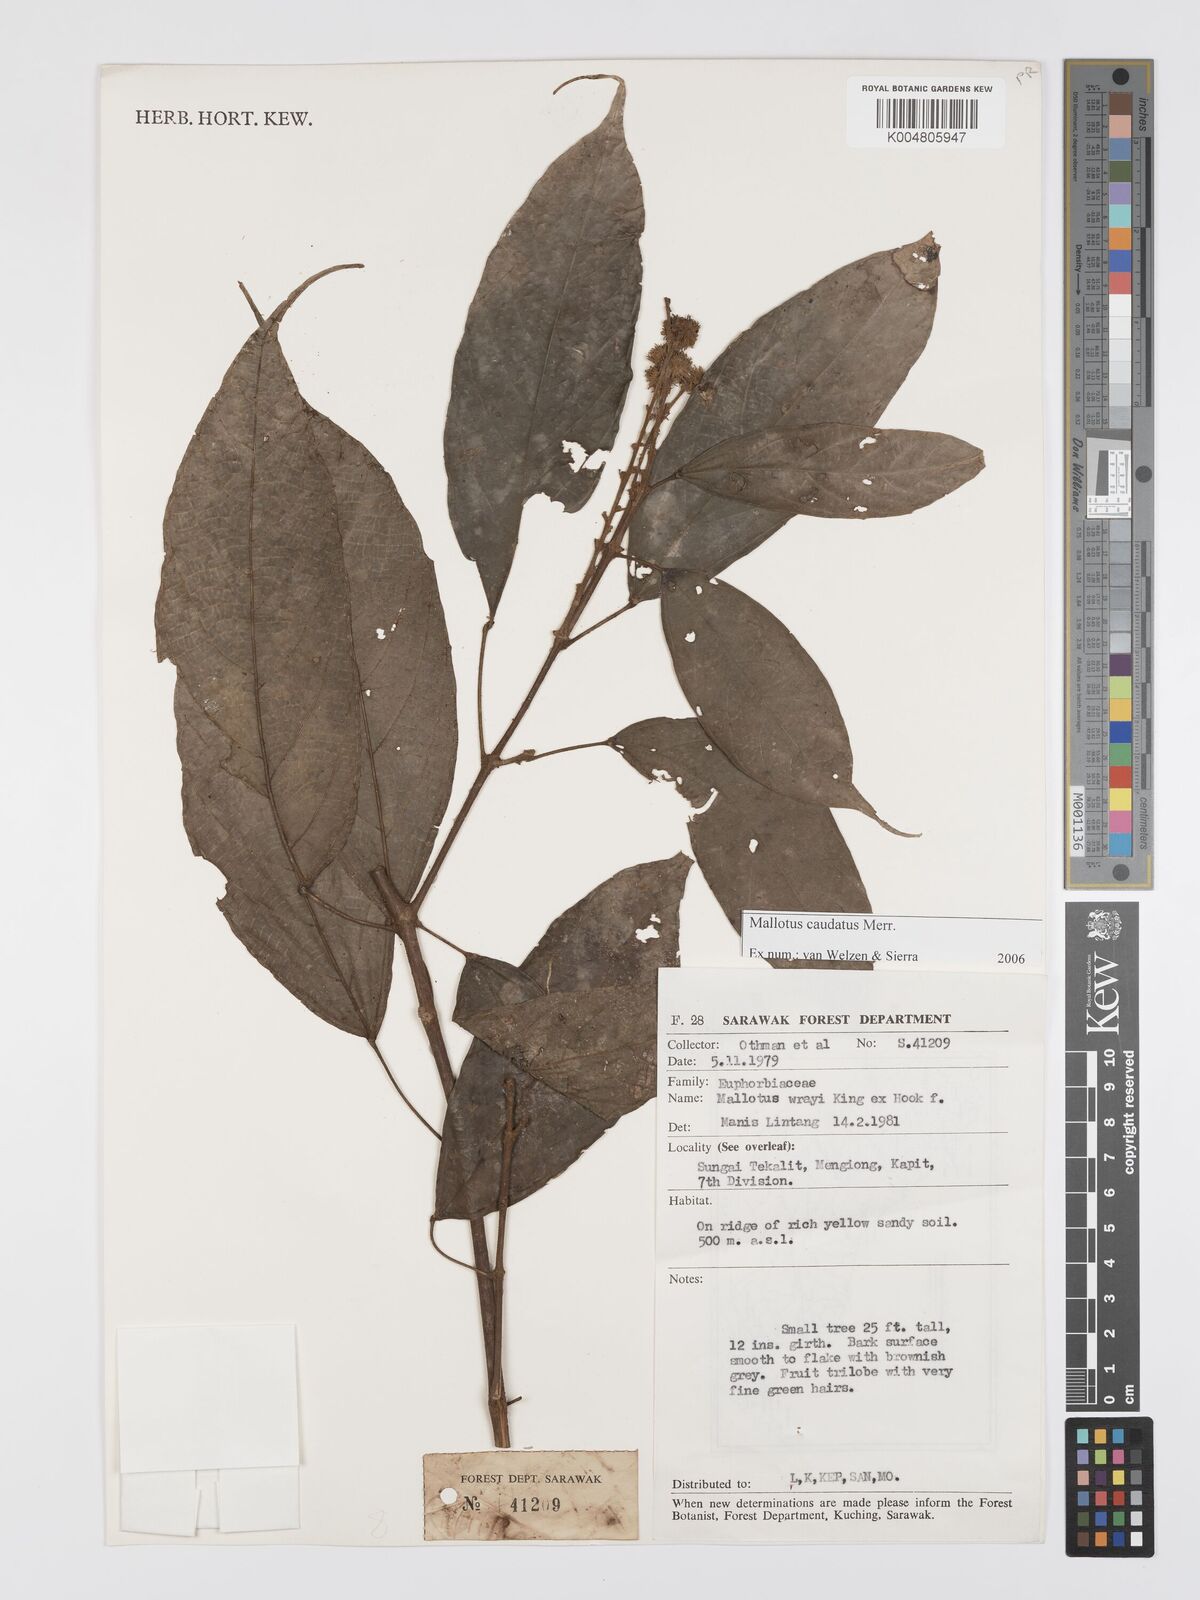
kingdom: Plantae
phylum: Tracheophyta
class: Magnoliopsida
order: Malpighiales
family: Euphorbiaceae
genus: Mallotus
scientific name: Mallotus caudatus
